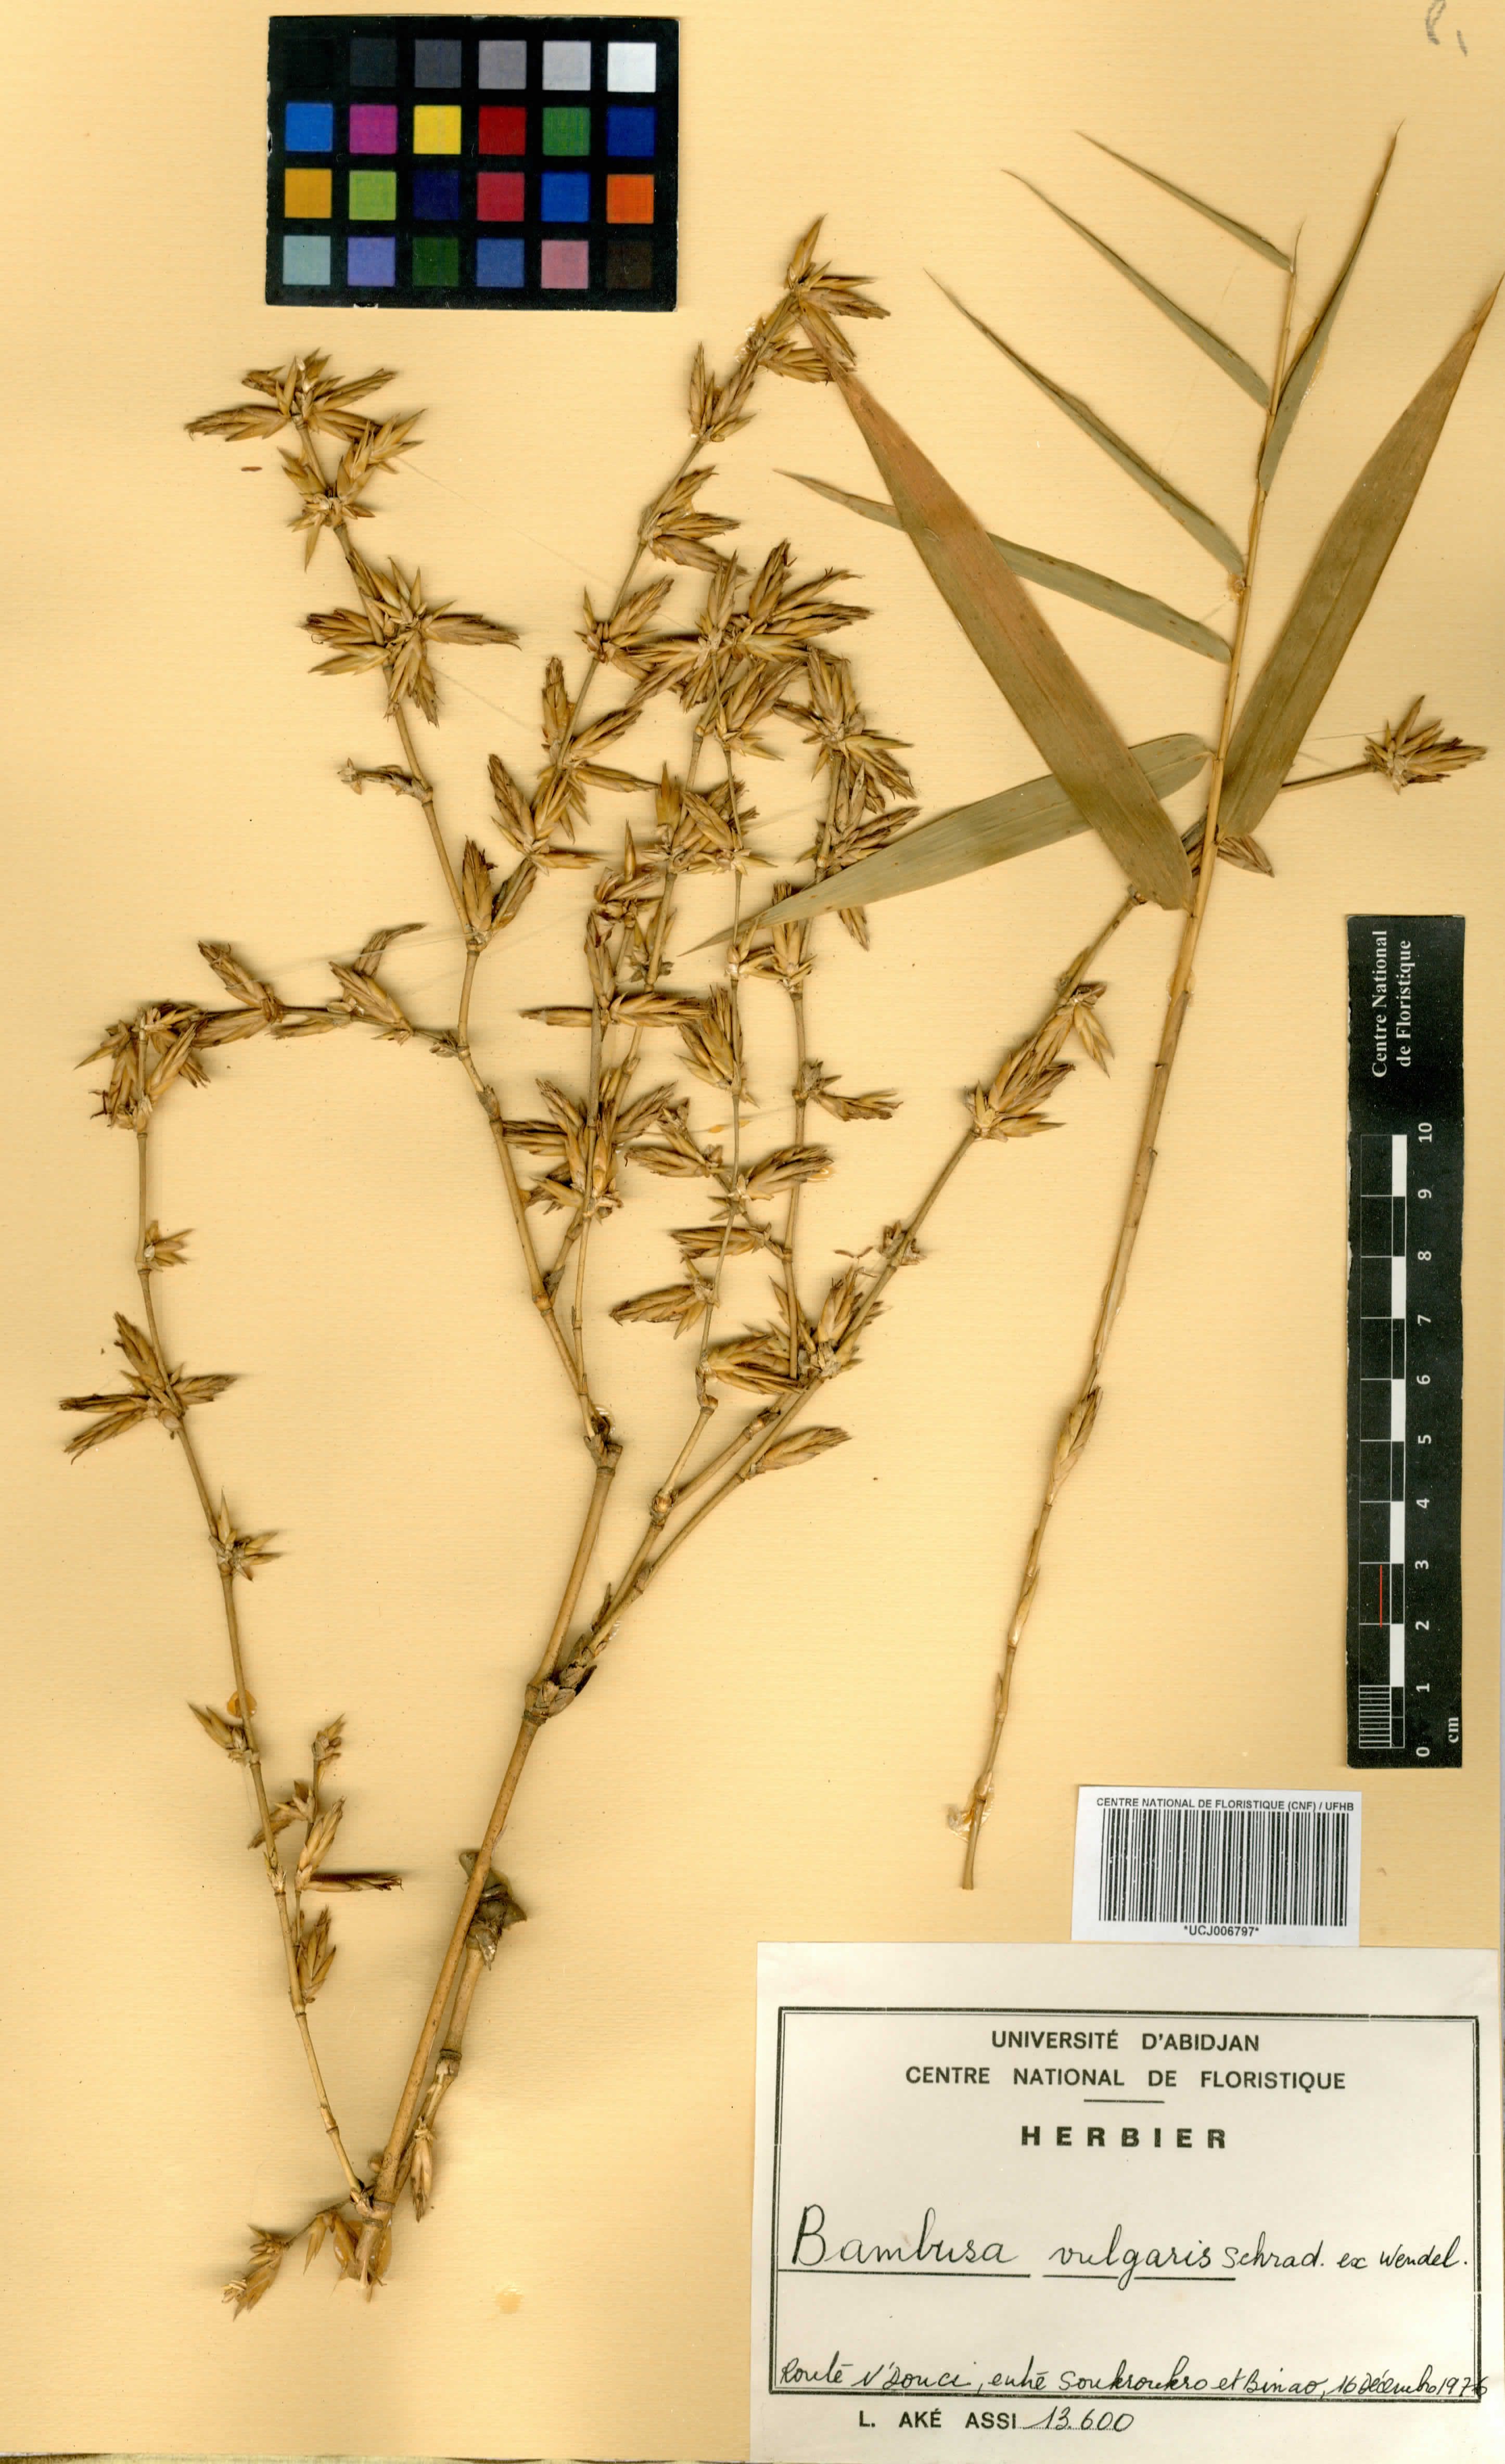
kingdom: Plantae
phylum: Tracheophyta
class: Liliopsida
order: Poales
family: Poaceae
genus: Bambusa
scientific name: Bambusa vulgaris
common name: Common bamboo
